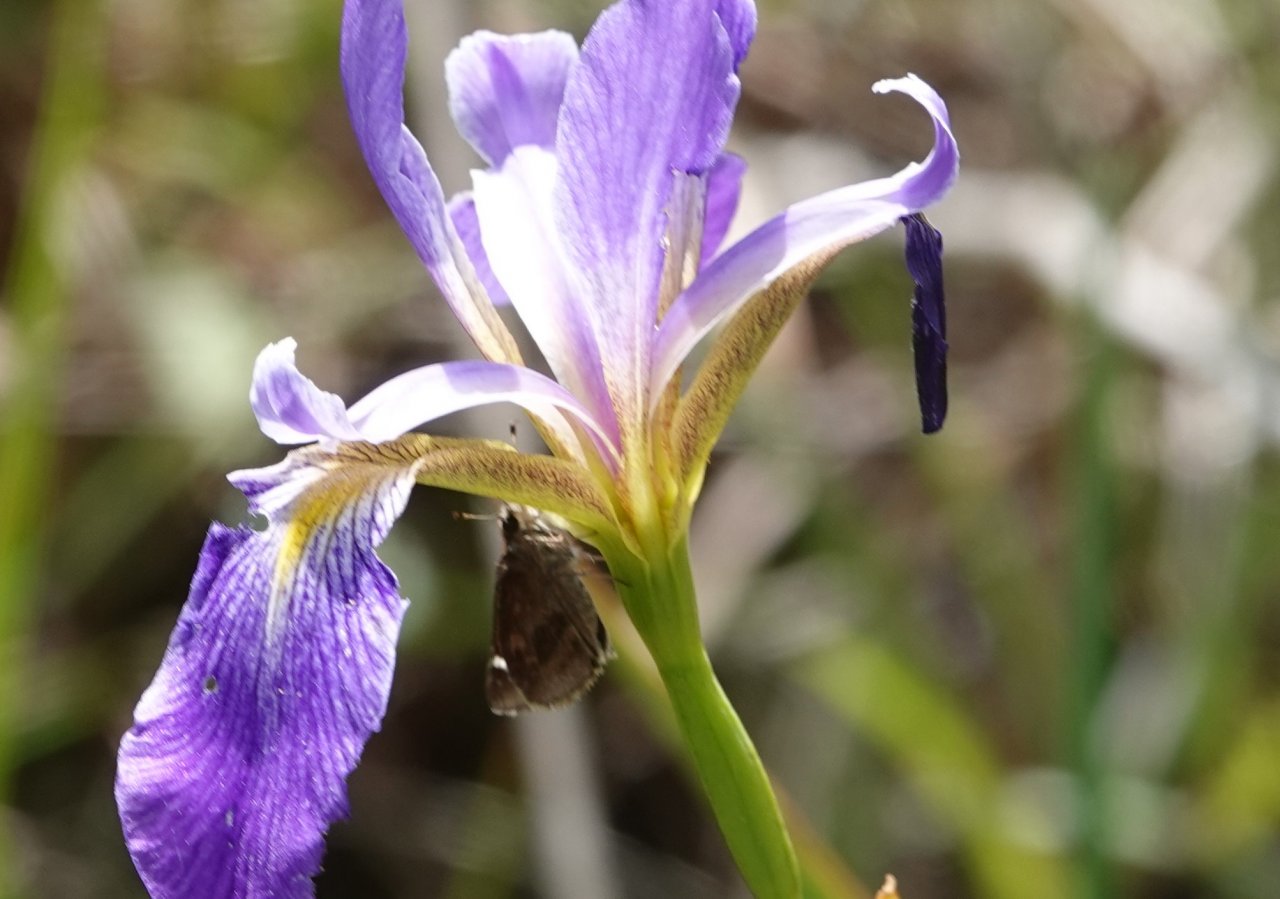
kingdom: Animalia
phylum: Arthropoda
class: Insecta
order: Lepidoptera
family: Hesperiidae
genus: Lerema
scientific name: Lerema accius
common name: Clouded Skipper
